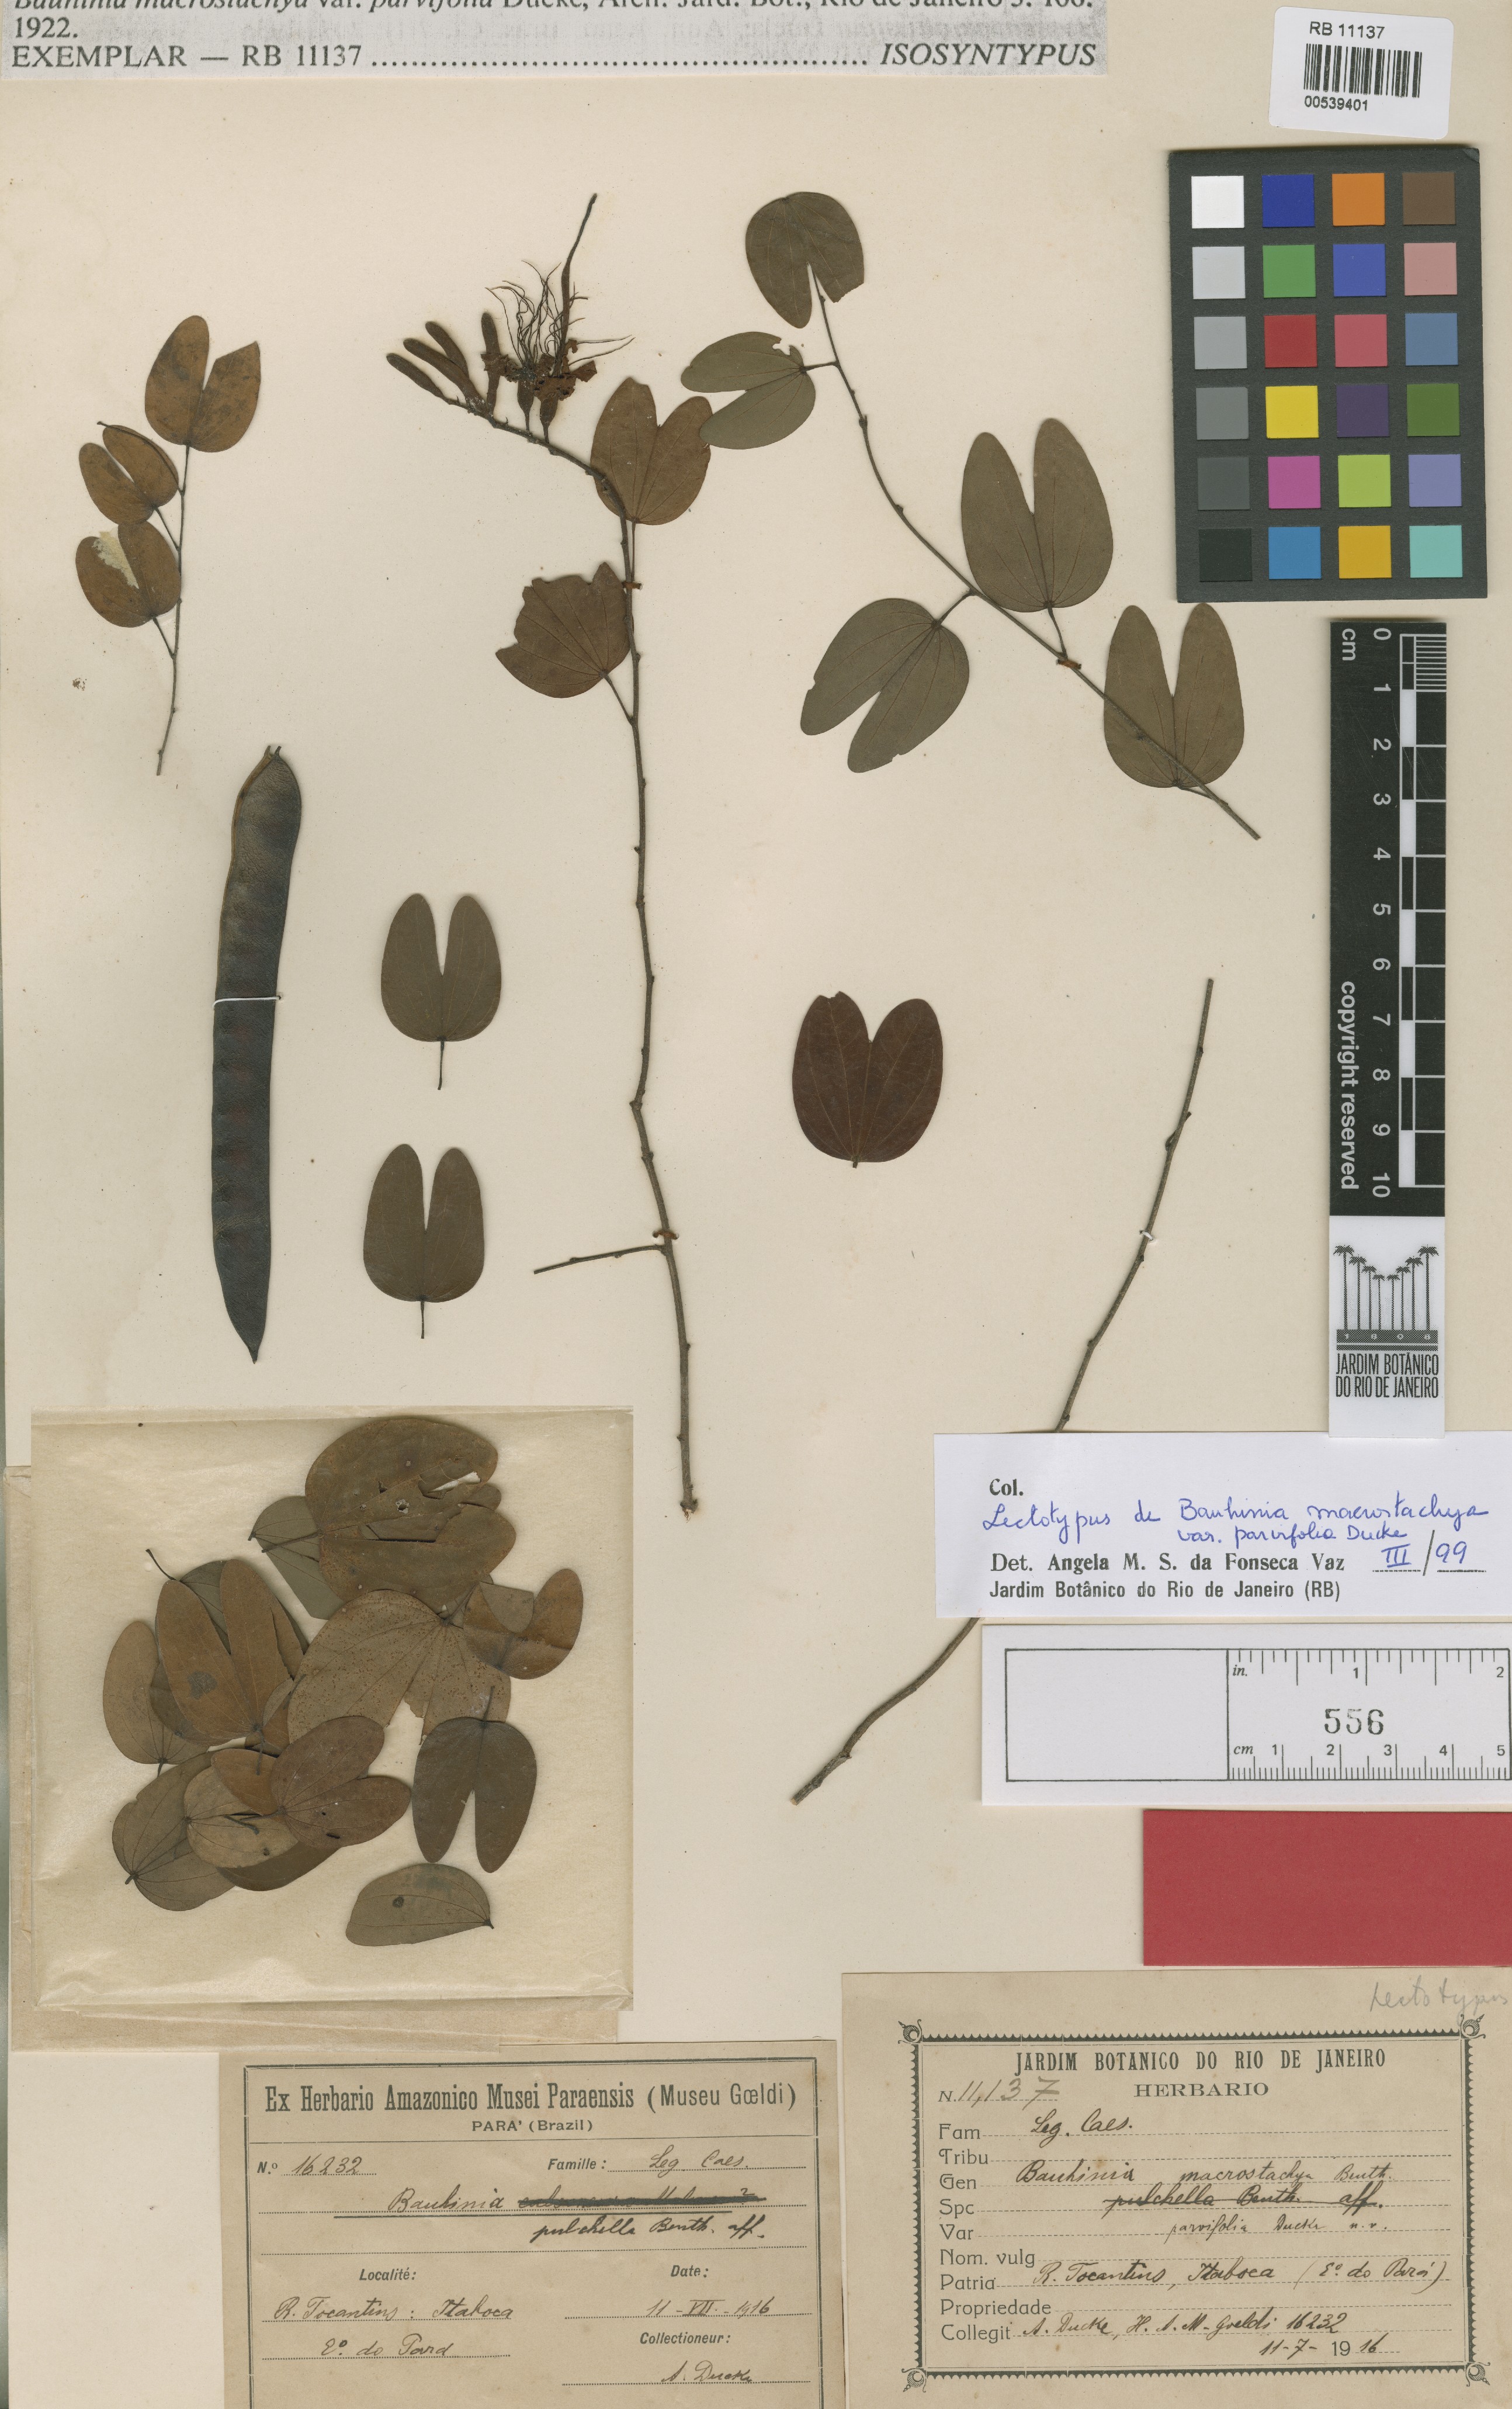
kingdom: Plantae
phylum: Tracheophyta
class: Magnoliopsida
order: Fabales
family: Fabaceae
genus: Bauhinia
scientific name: Bauhinia ungulata
